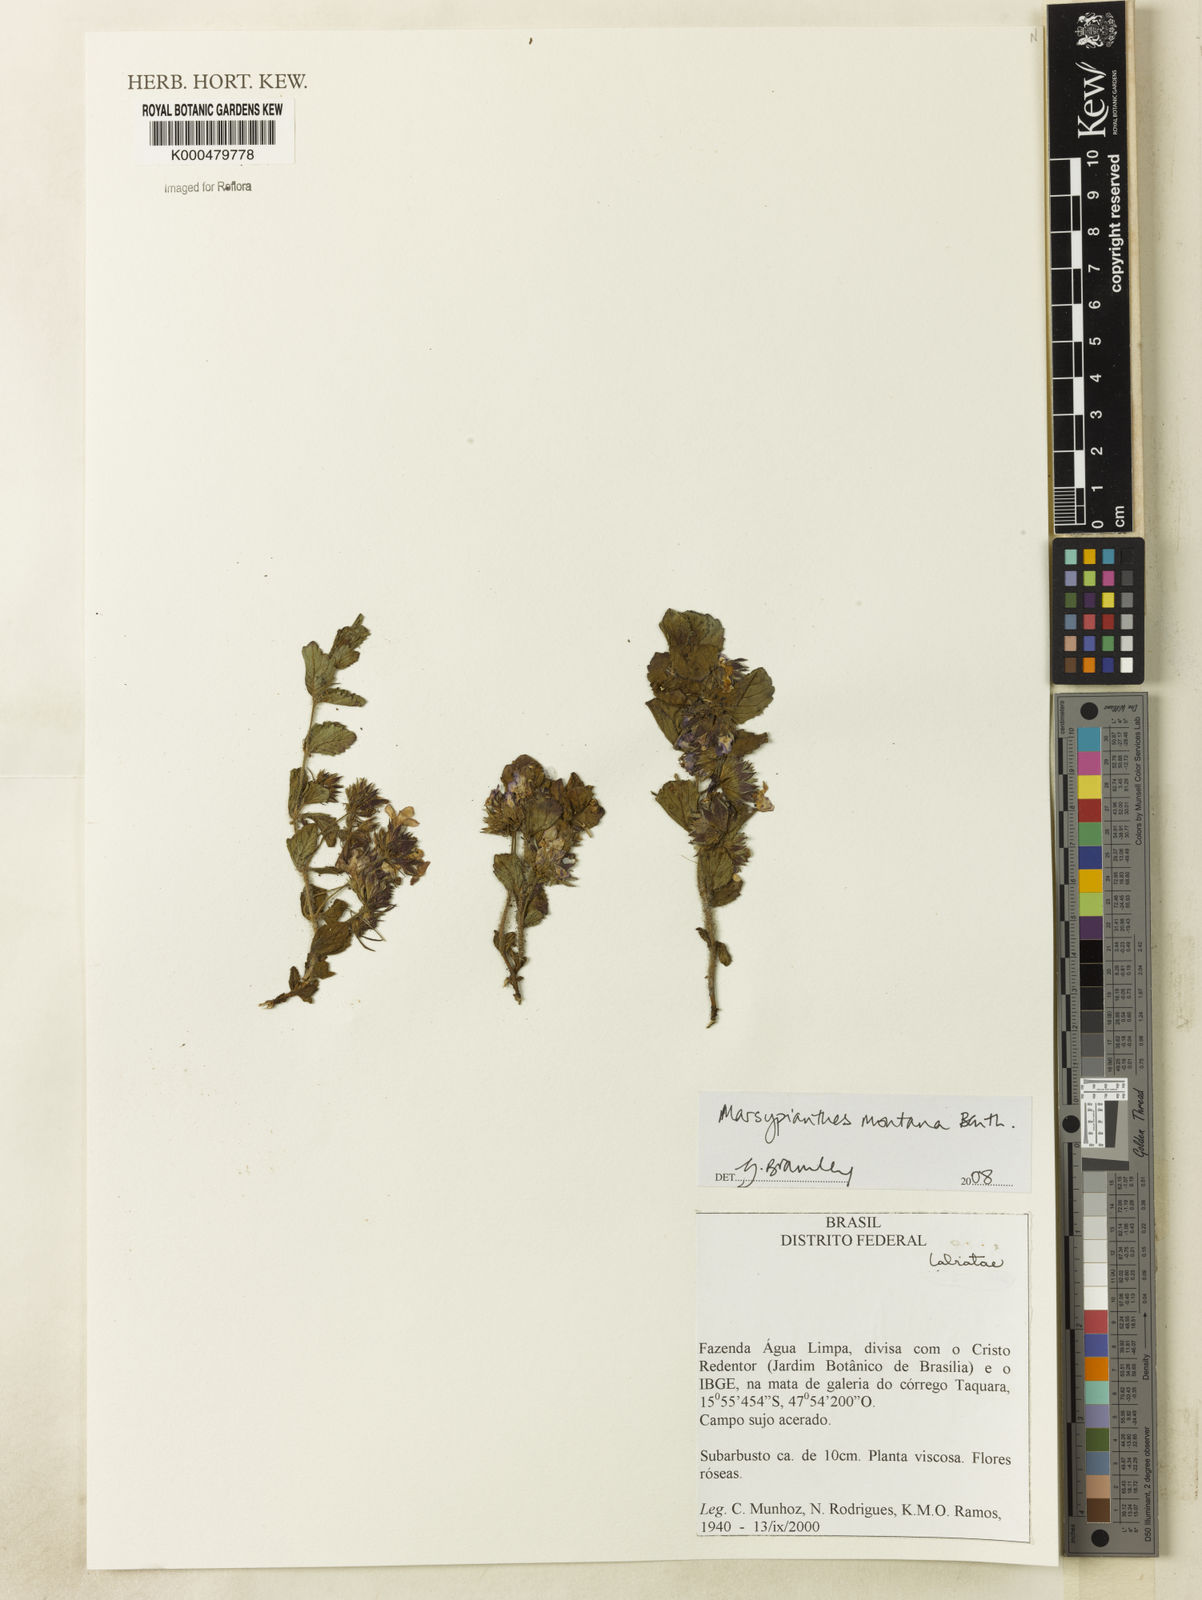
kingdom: Plantae
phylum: Tracheophyta
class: Magnoliopsida
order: Lamiales
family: Lamiaceae
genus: Marsypianthes
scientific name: Marsypianthes montana
